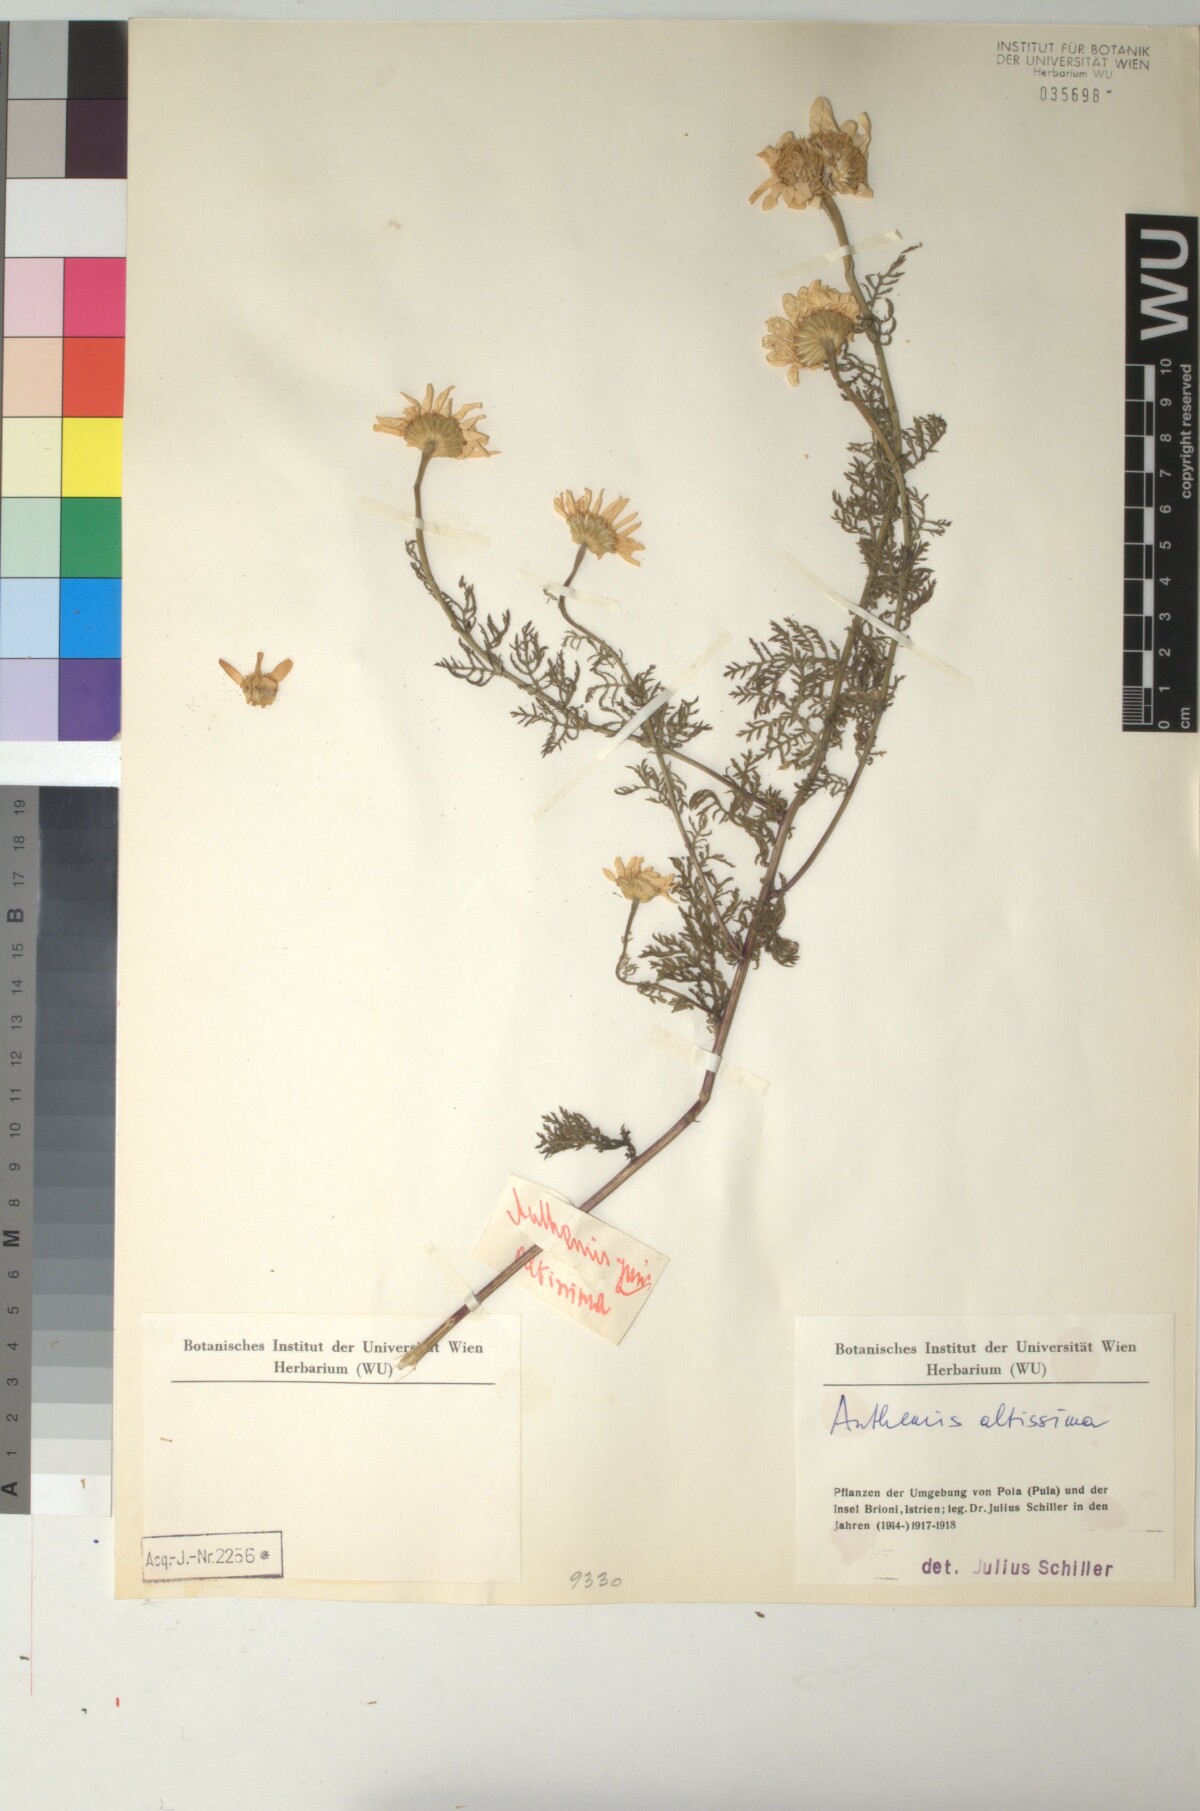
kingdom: Plantae
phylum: Tracheophyta
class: Magnoliopsida
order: Asterales
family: Asteraceae
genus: Cota
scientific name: Cota altissima
